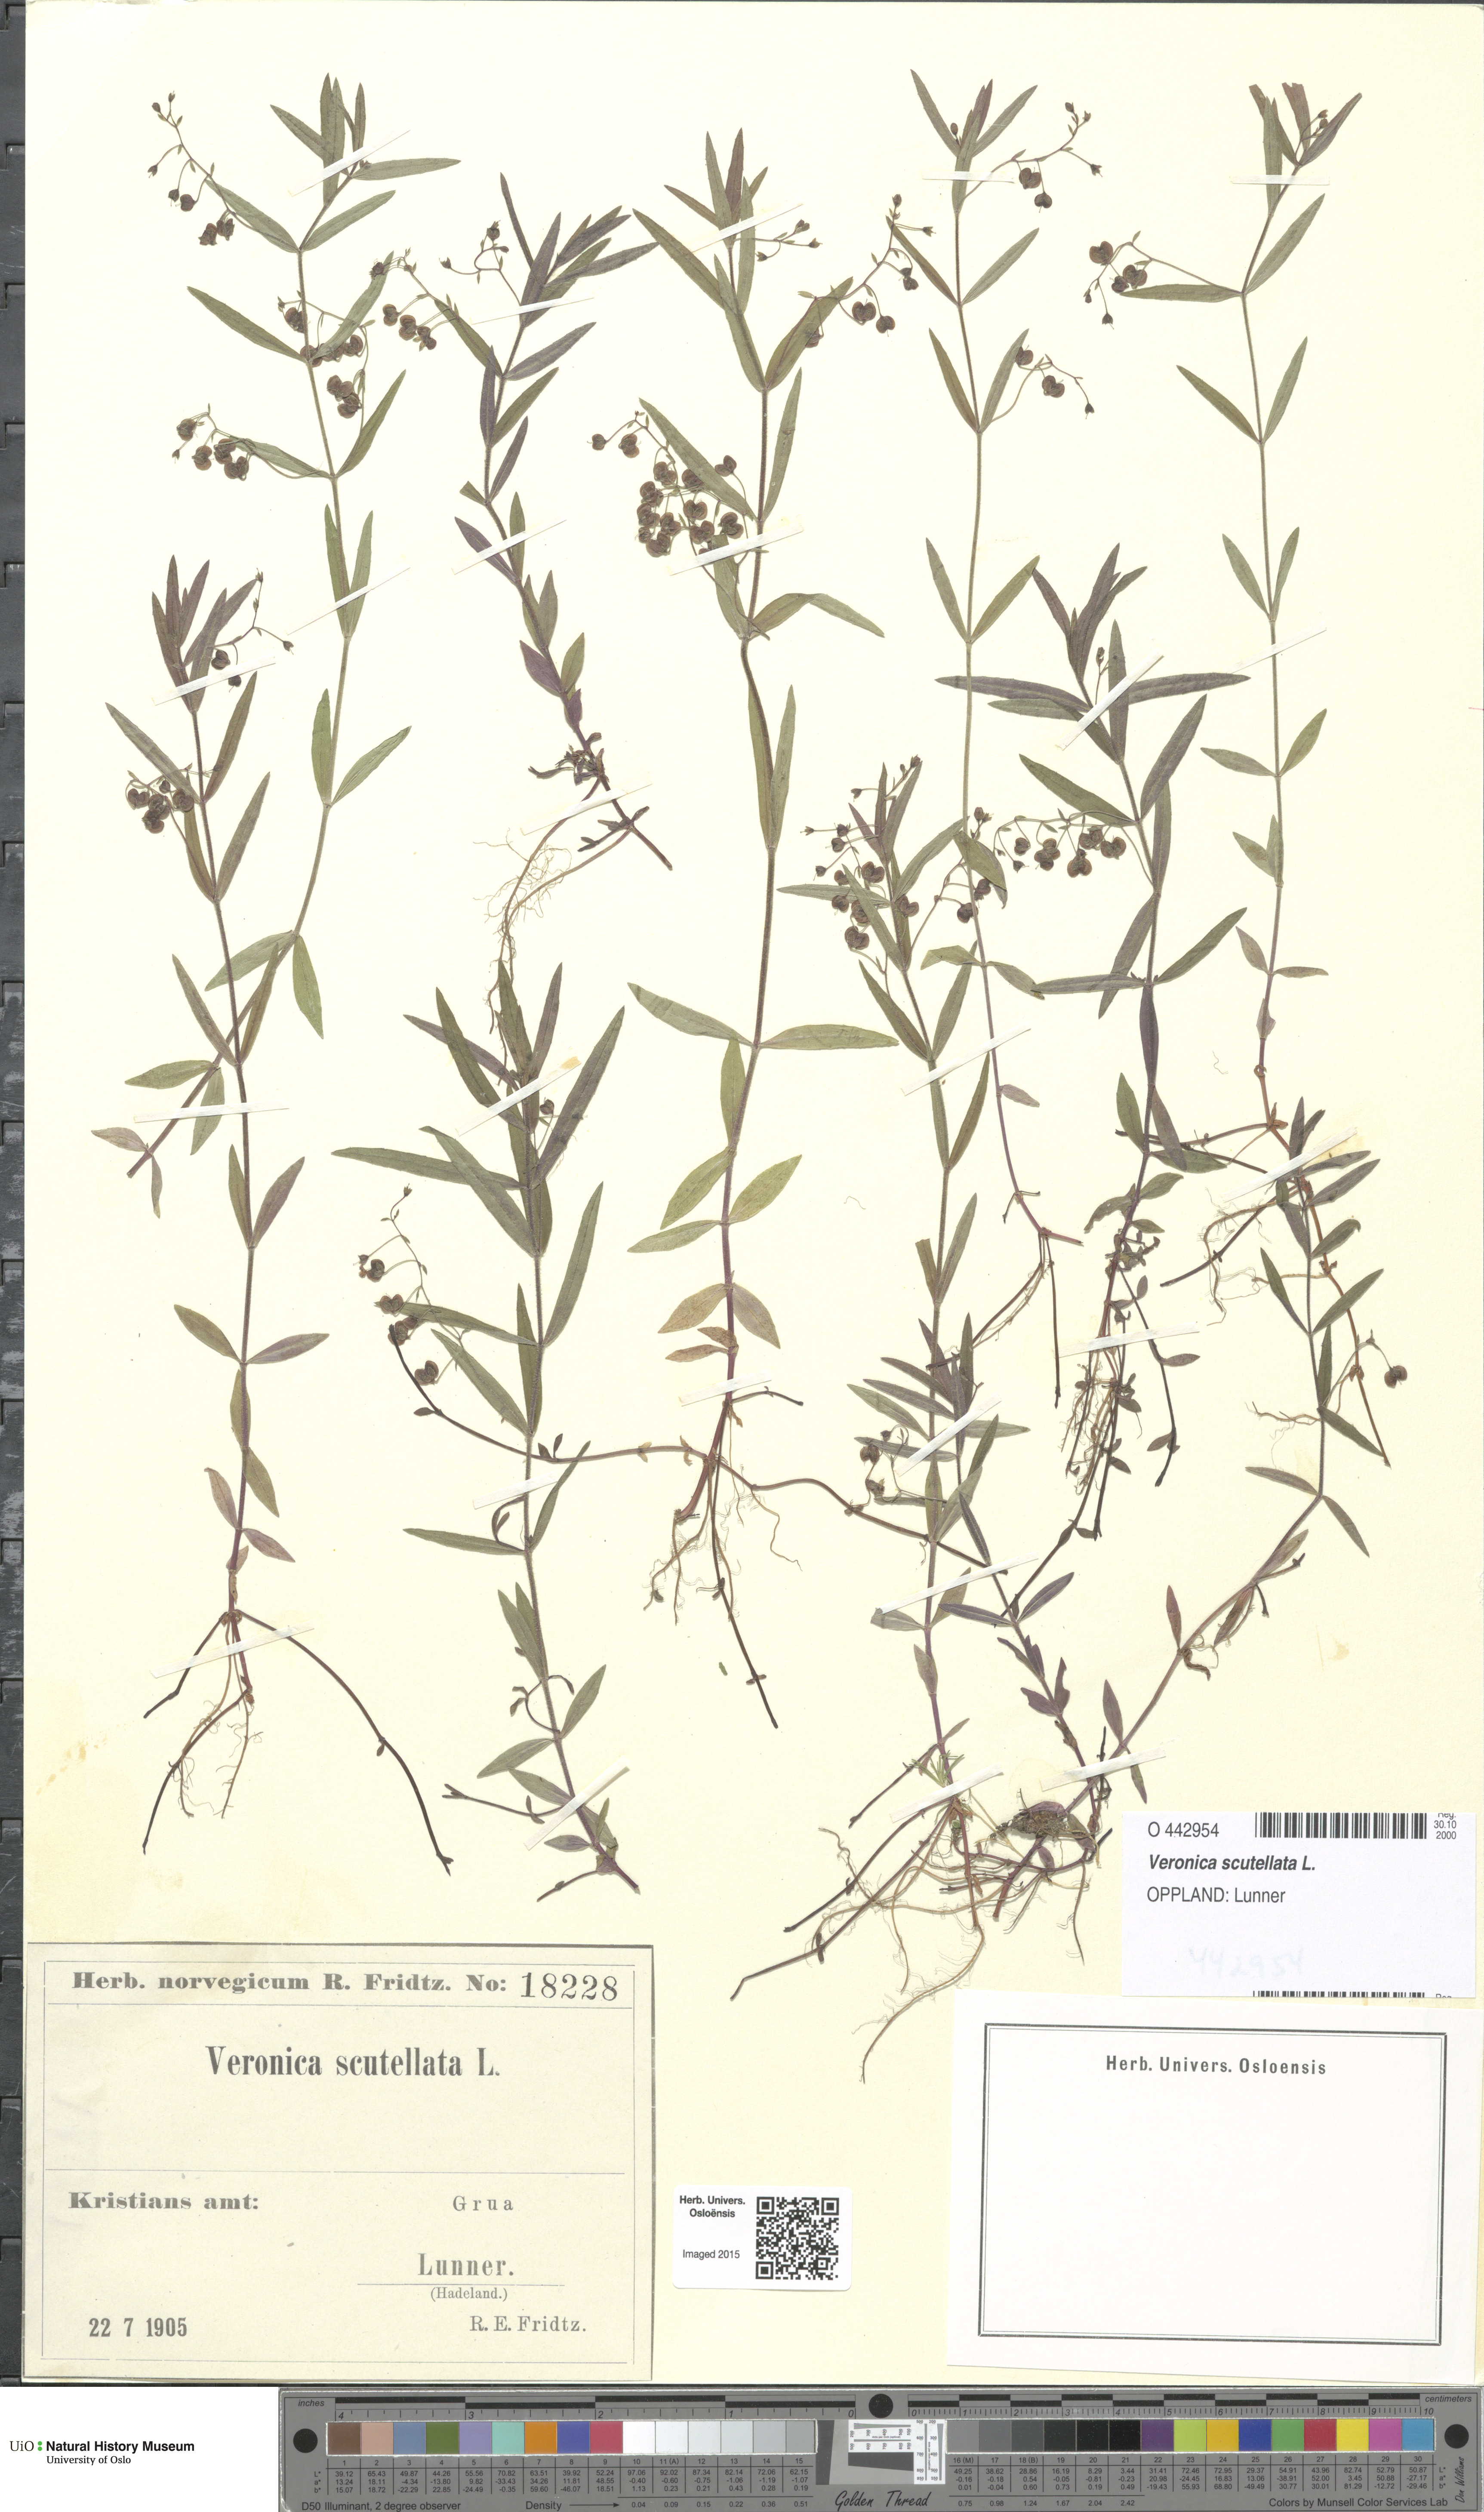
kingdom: Plantae
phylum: Tracheophyta
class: Magnoliopsida
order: Lamiales
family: Plantaginaceae
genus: Veronica
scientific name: Veronica scutellata
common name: Marsh speedwell
